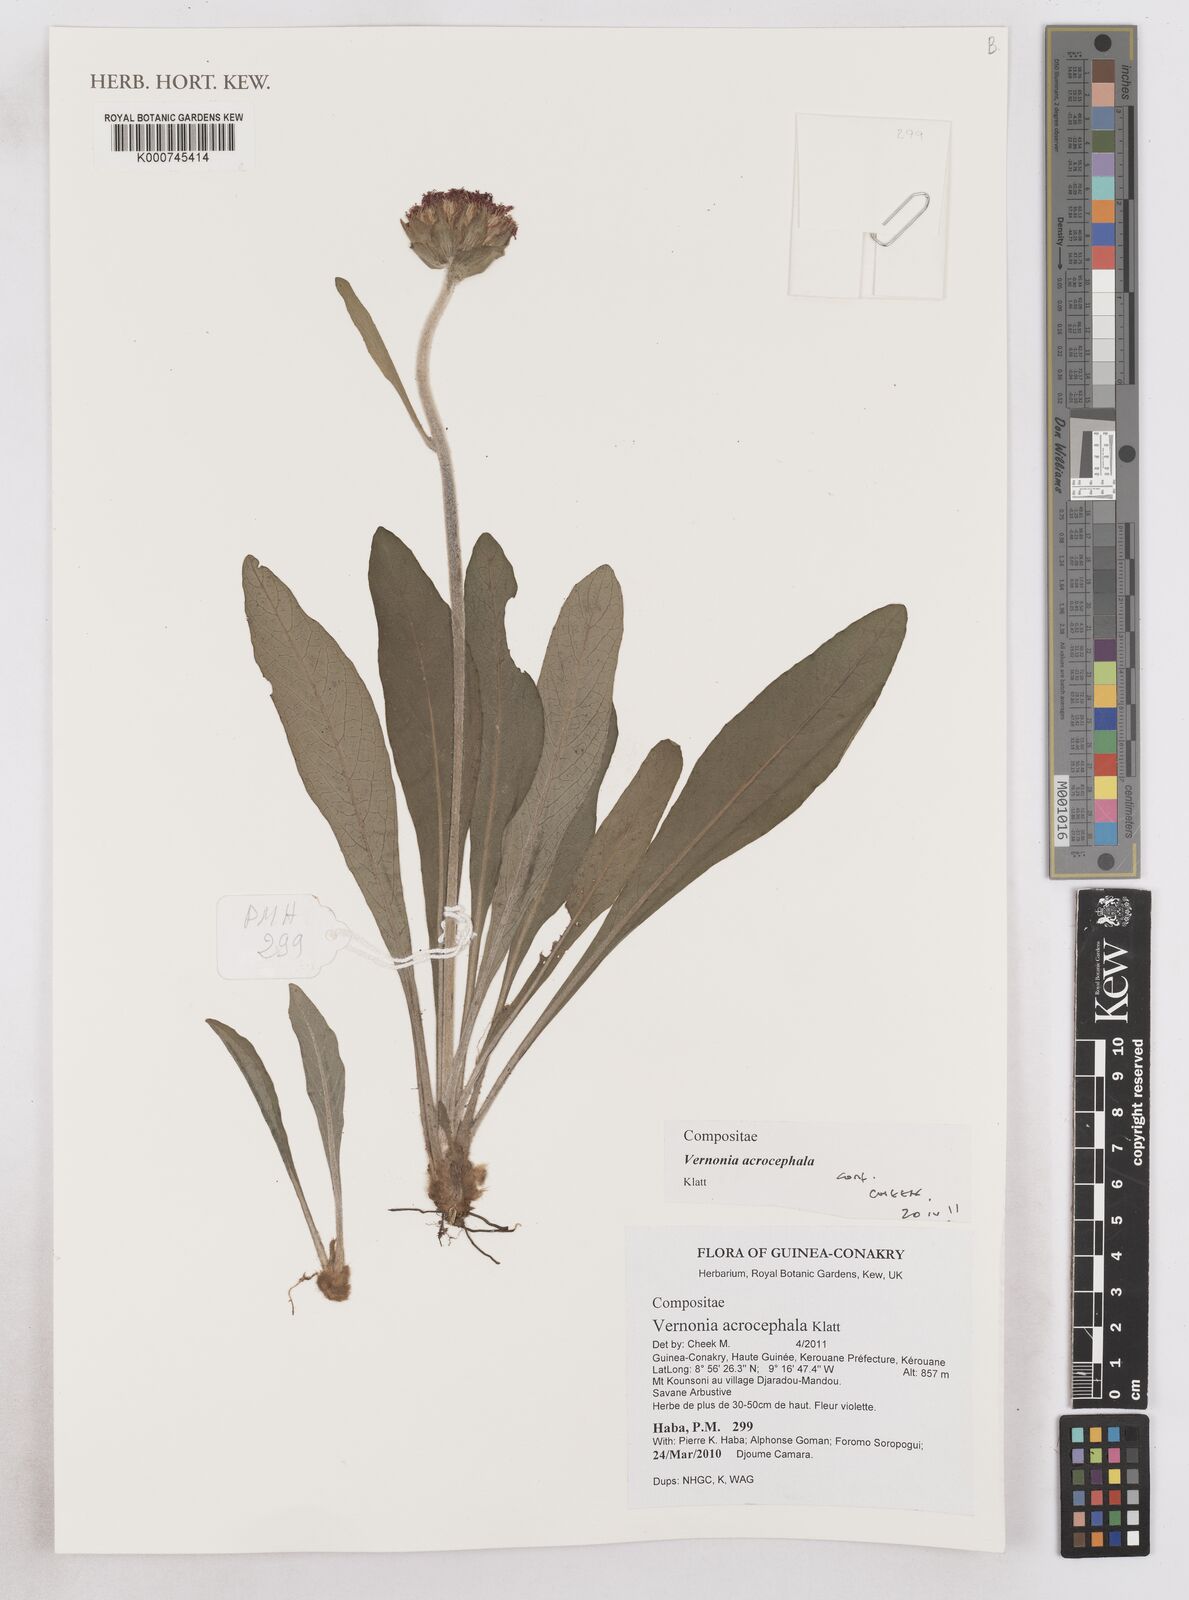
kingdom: Plantae
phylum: Tracheophyta
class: Magnoliopsida
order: Asterales
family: Asteraceae
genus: Vernonella
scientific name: Vernonella acrocephala
